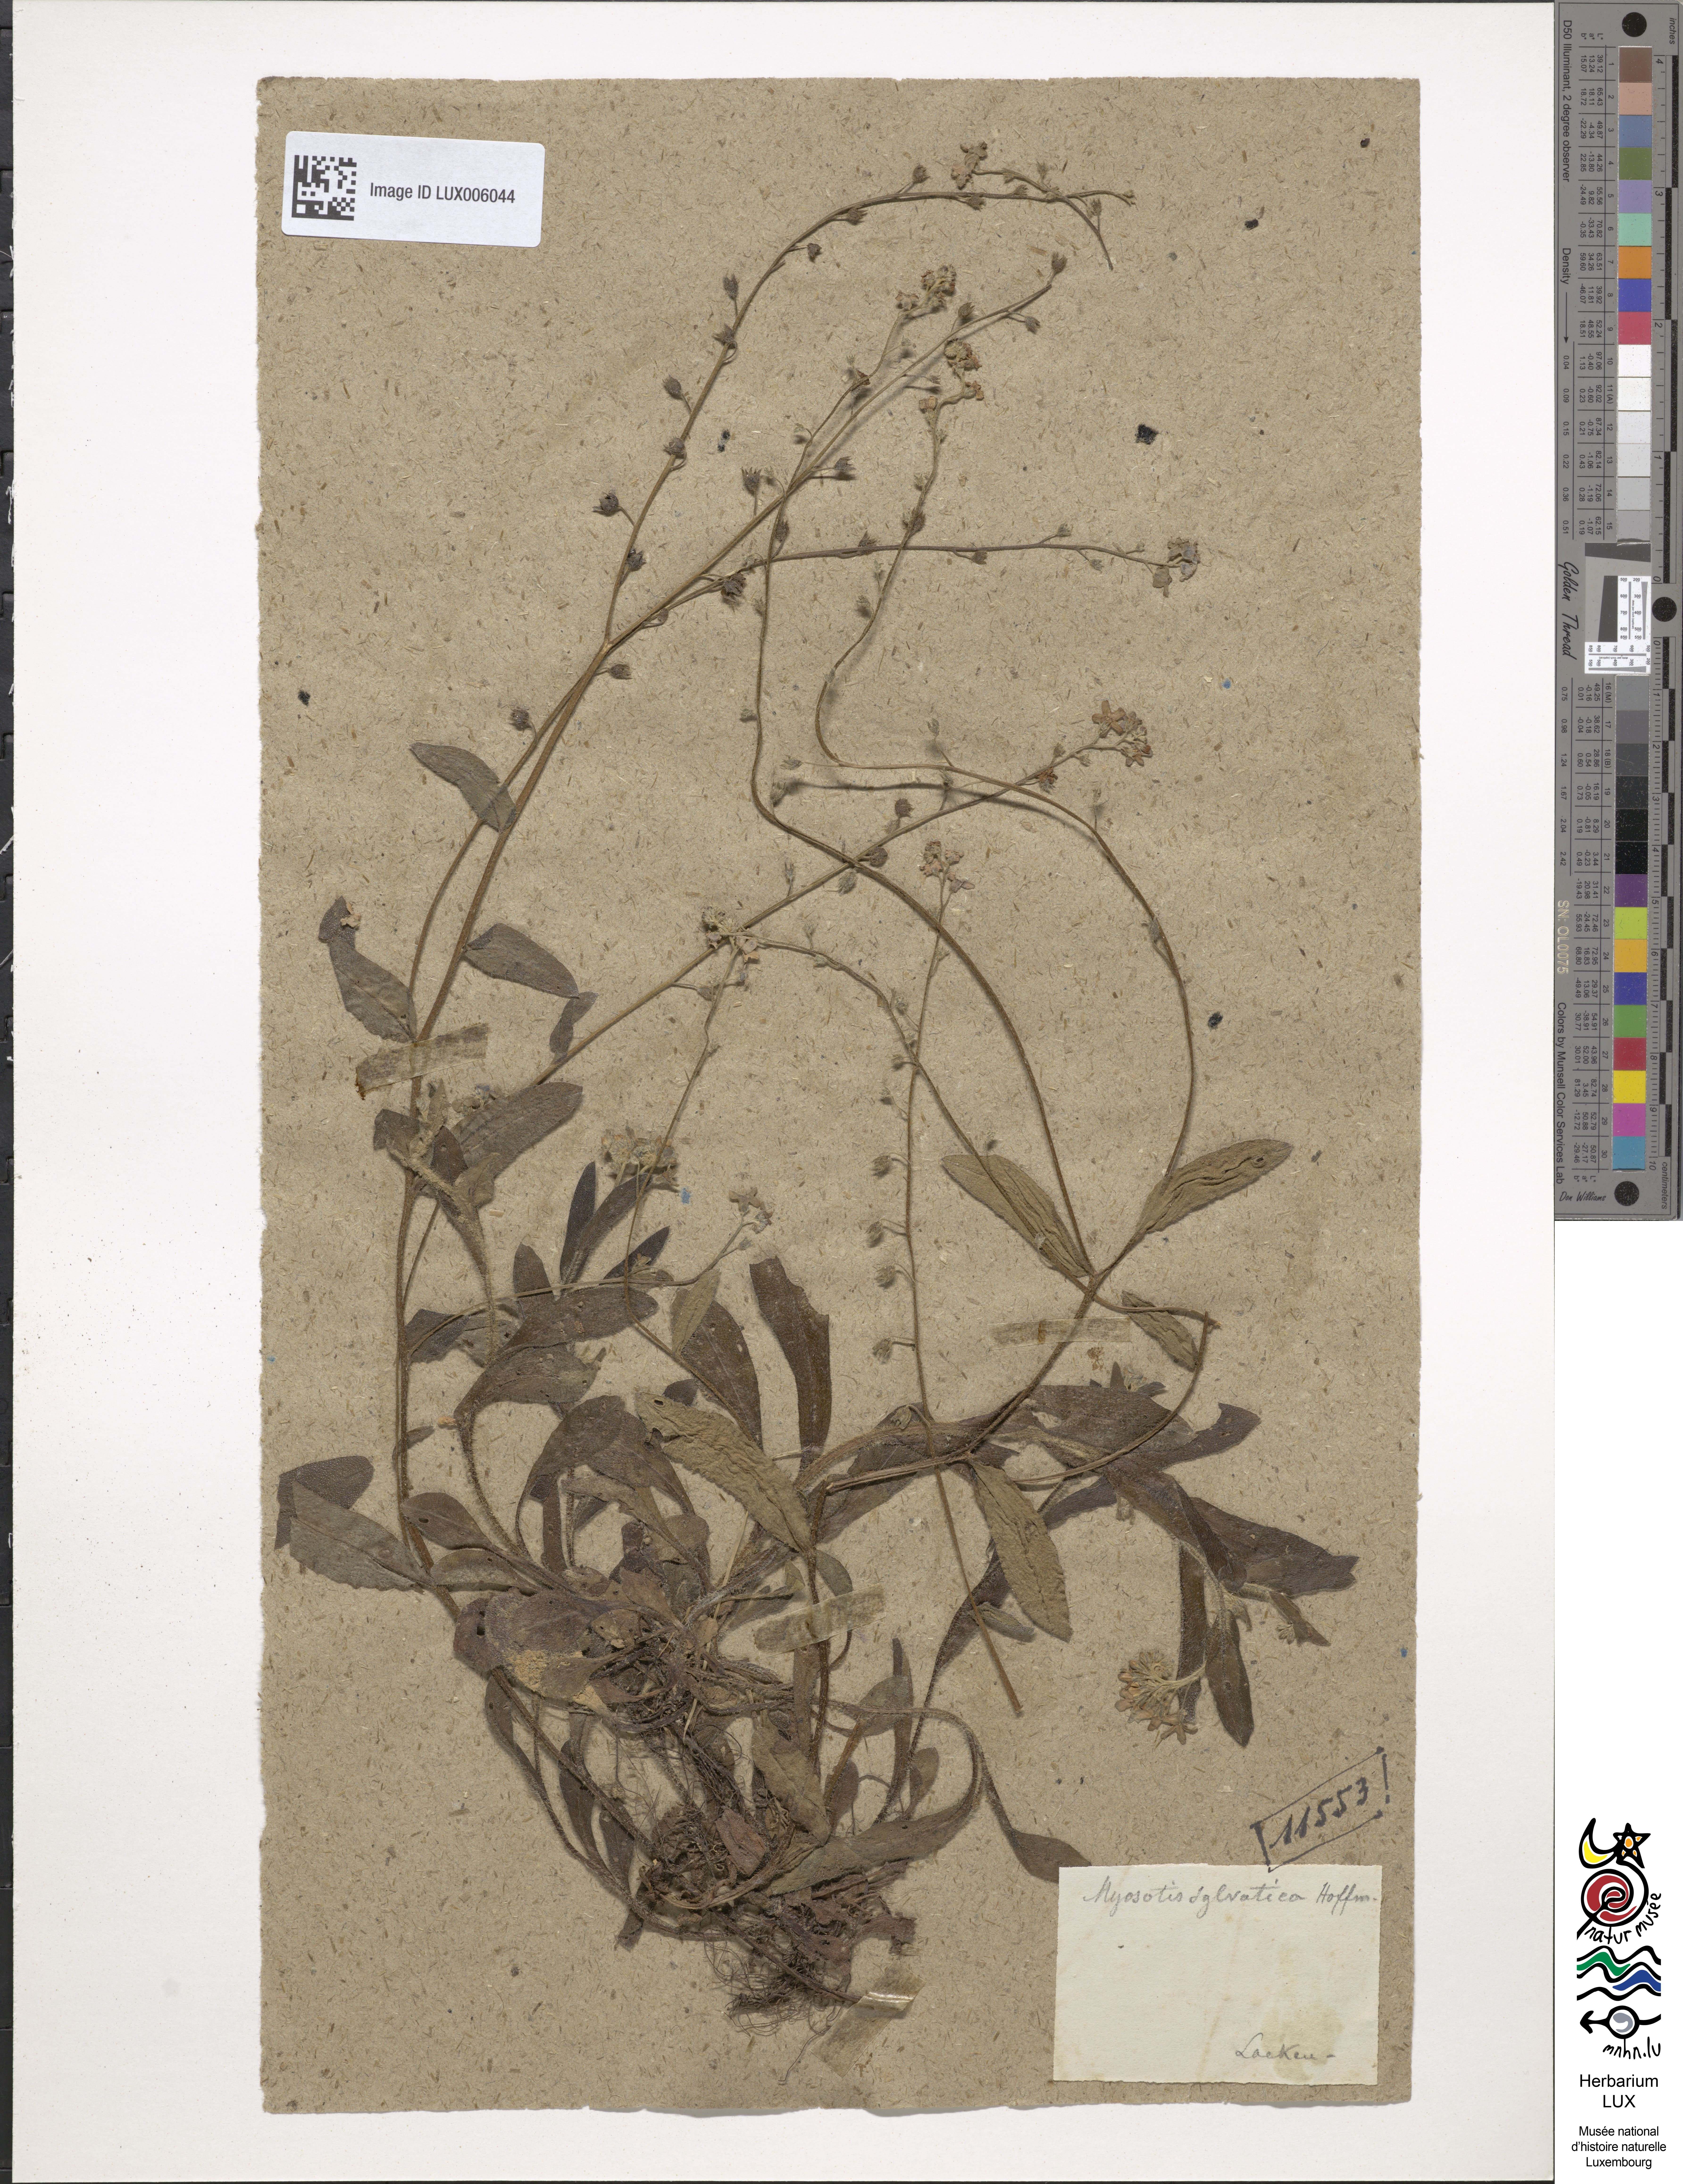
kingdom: Plantae
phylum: Tracheophyta
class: Magnoliopsida
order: Boraginales
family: Boraginaceae
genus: Myosotis
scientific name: Myosotis sylvatica
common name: Wood forget-me-not
